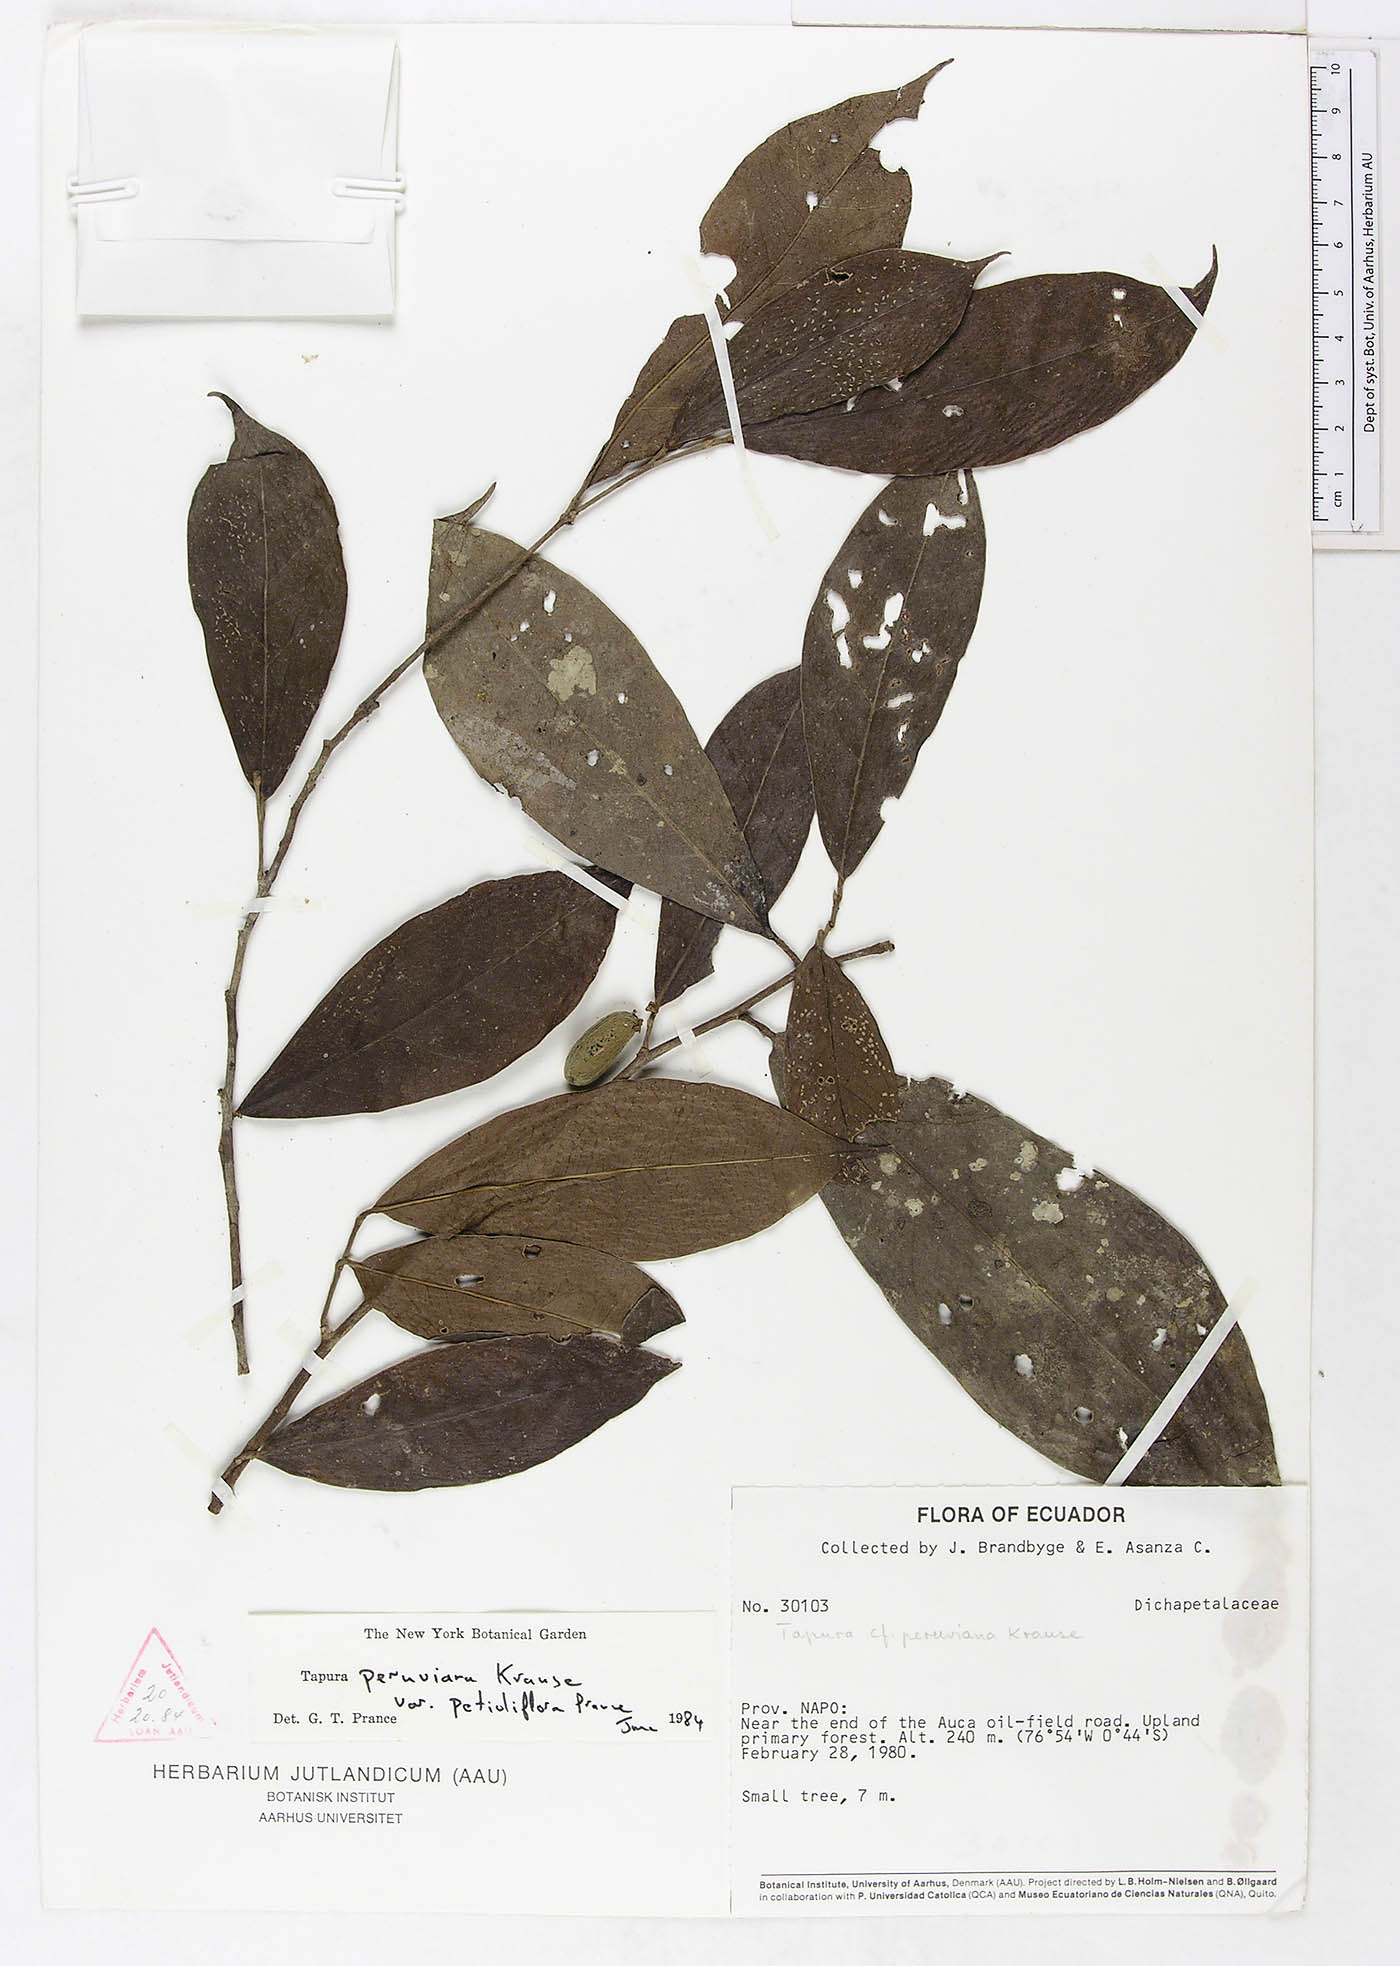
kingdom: Plantae
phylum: Tracheophyta
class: Magnoliopsida
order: Malpighiales
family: Dichapetalaceae
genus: Tapura
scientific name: Tapura peruviana
